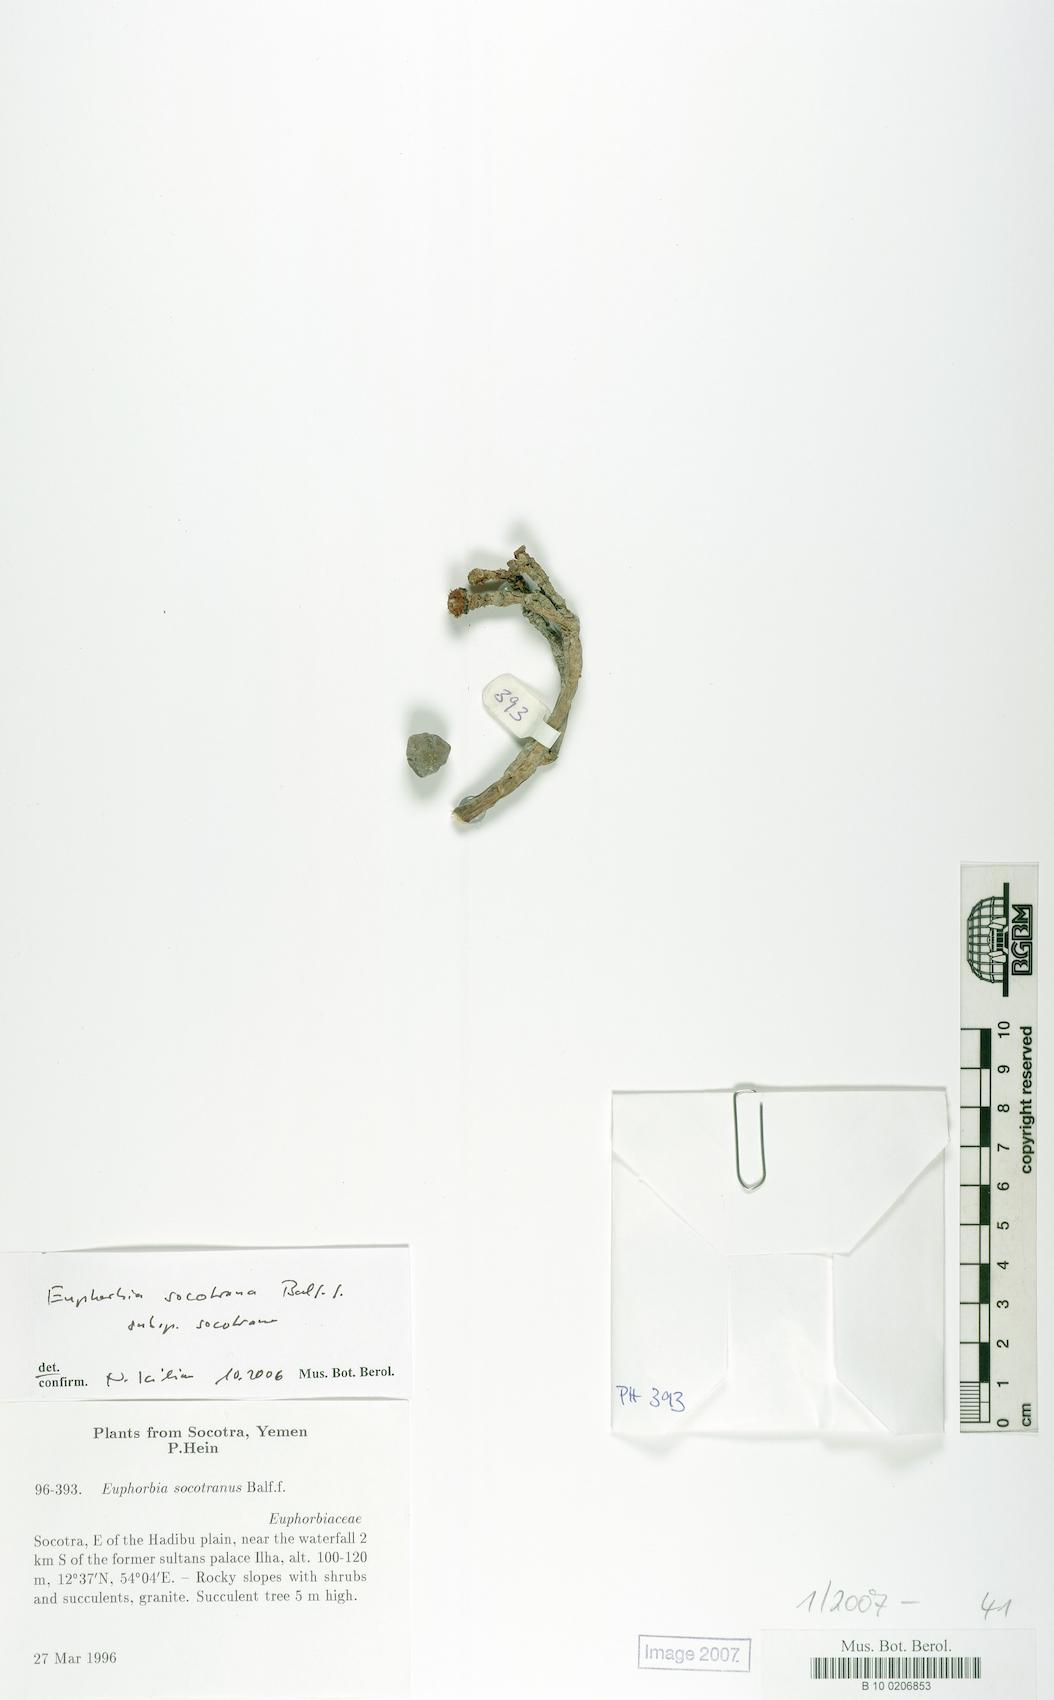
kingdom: Plantae
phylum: Tracheophyta
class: Magnoliopsida
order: Malpighiales
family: Euphorbiaceae
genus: Euphorbia
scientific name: Euphorbia socotrana
